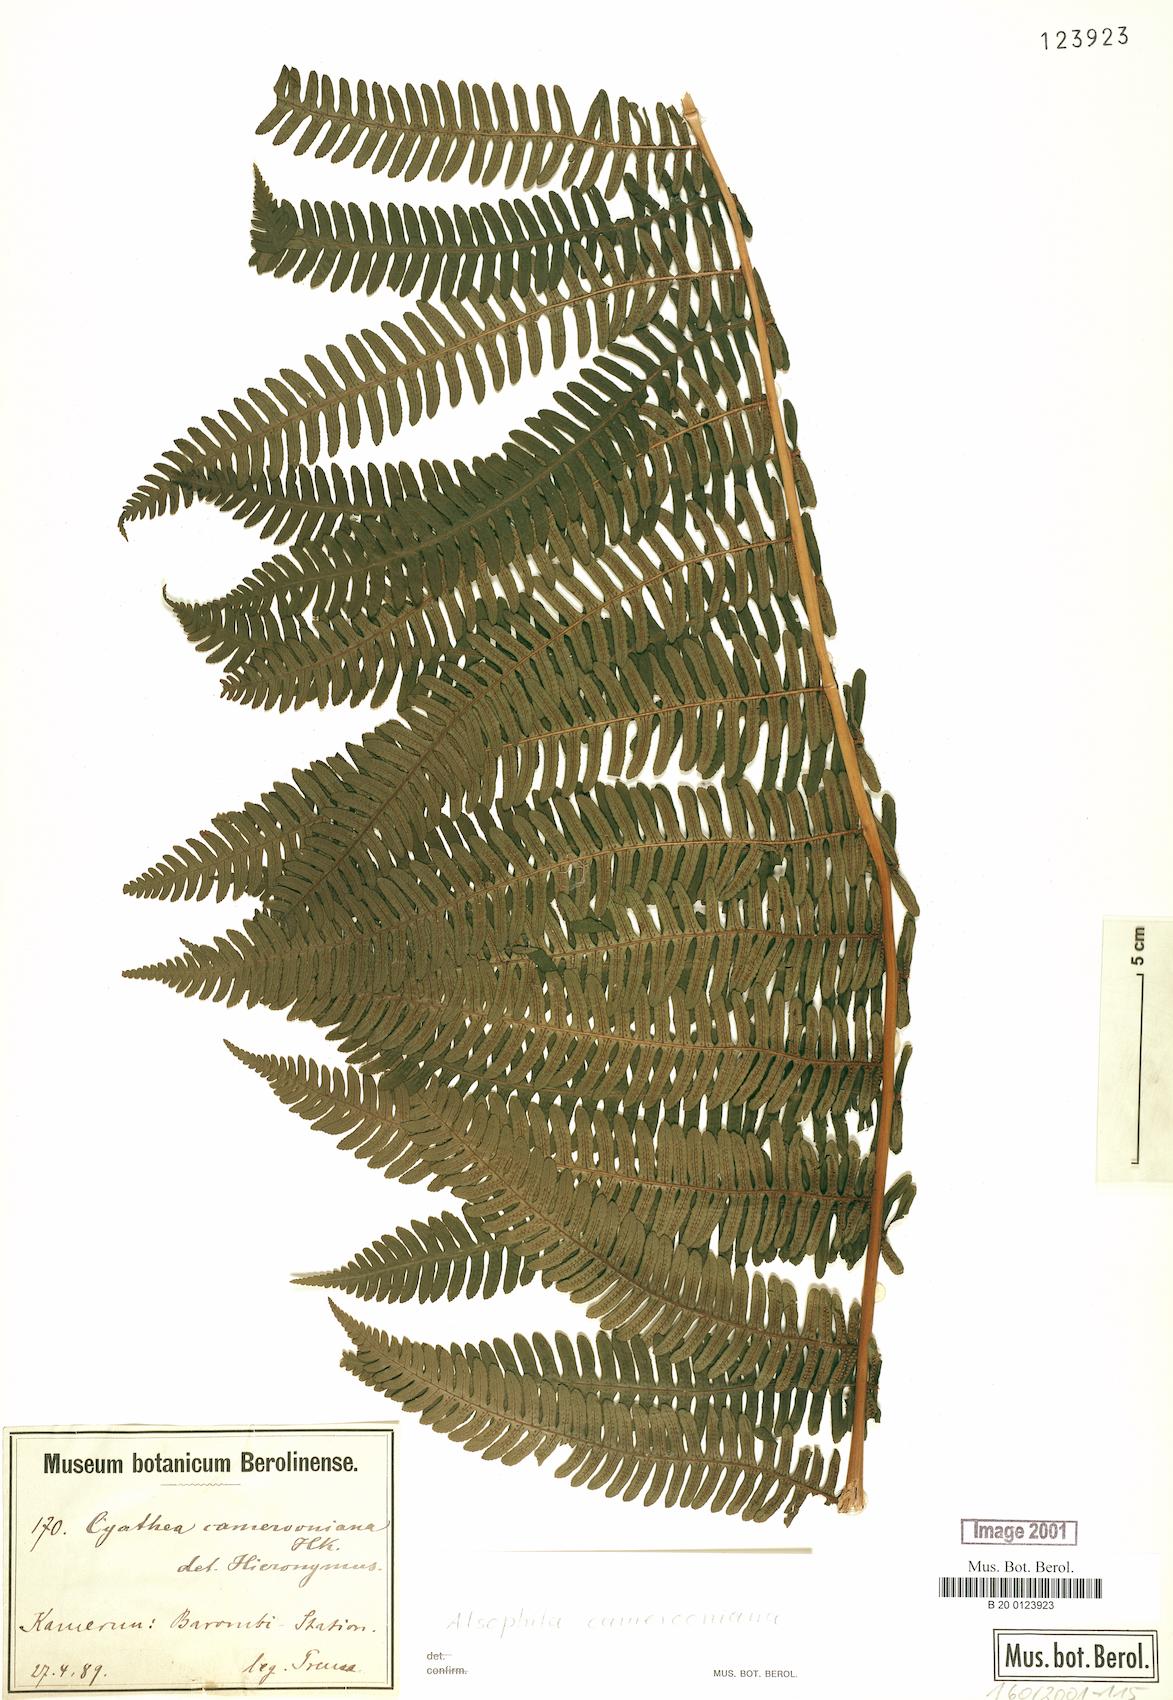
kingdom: Plantae
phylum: Tracheophyta
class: Polypodiopsida
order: Cyatheales
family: Cyatheaceae
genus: Alsophila
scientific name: Alsophila camerooniana
